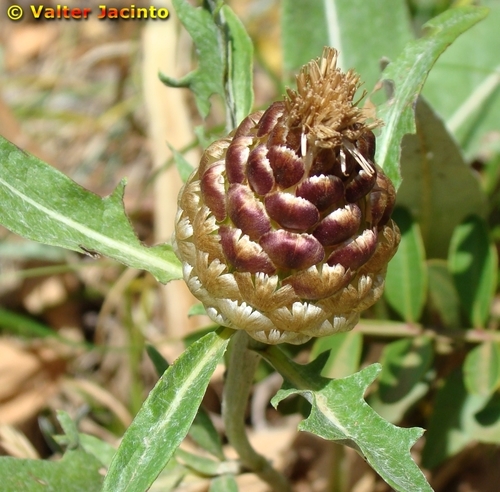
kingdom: Plantae
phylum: Tracheophyta
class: Magnoliopsida
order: Asterales
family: Asteraceae
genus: Leuzea
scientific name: Leuzea conifera
